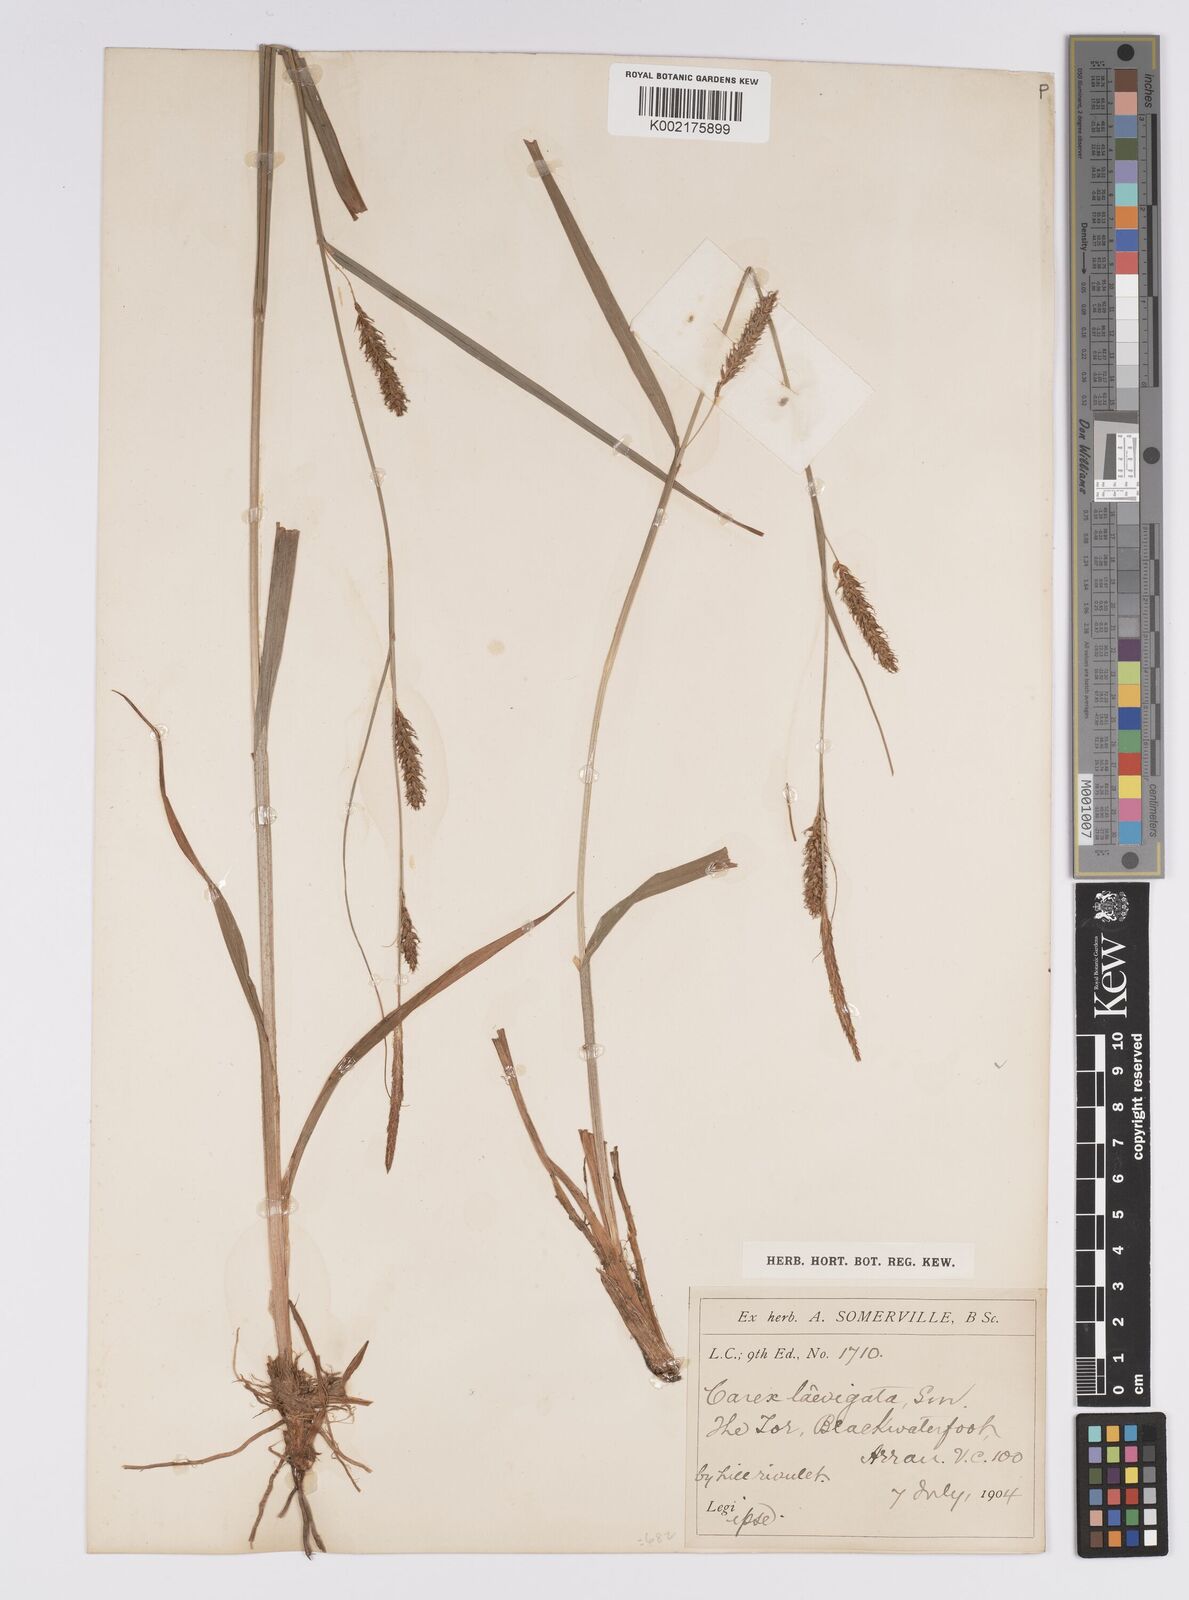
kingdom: Plantae
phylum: Tracheophyta
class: Liliopsida
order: Poales
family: Cyperaceae
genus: Carex
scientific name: Carex laevigata
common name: Smooth-stalked sedge
